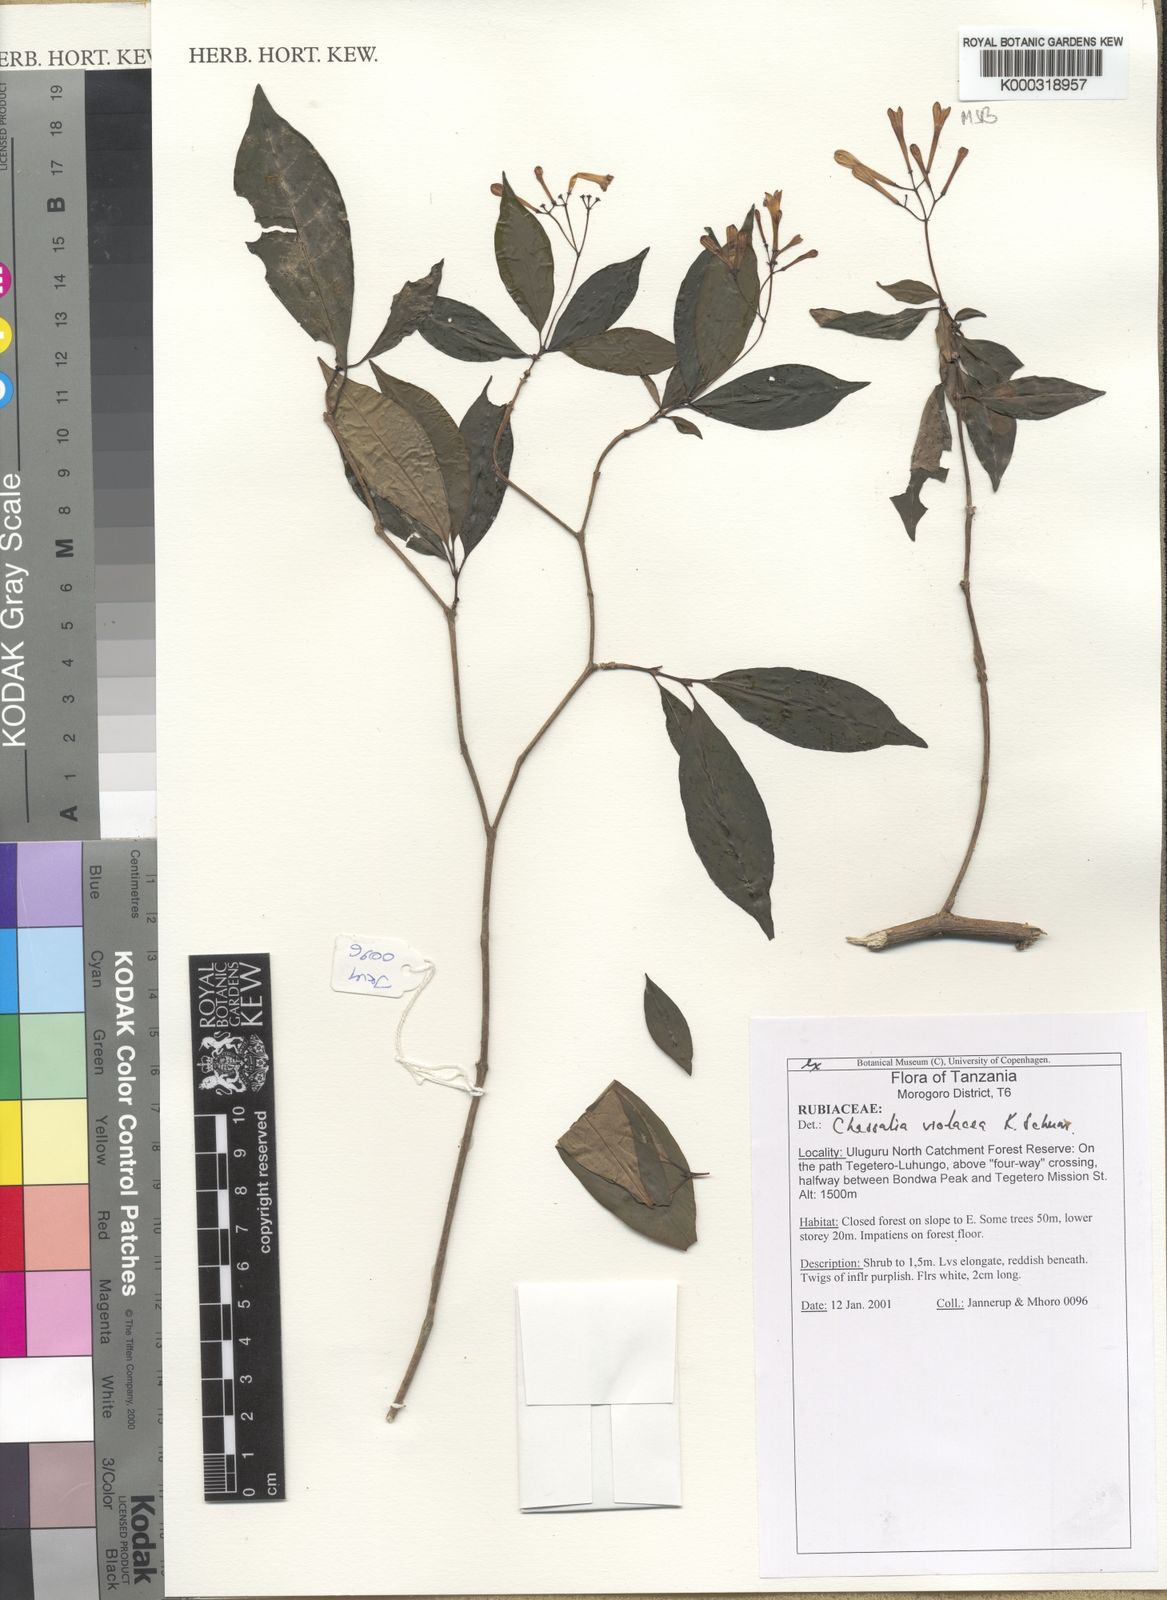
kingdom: Plantae
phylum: Tracheophyta
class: Magnoliopsida
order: Gentianales
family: Rubiaceae
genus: Chassalia
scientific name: Chassalia violacea
